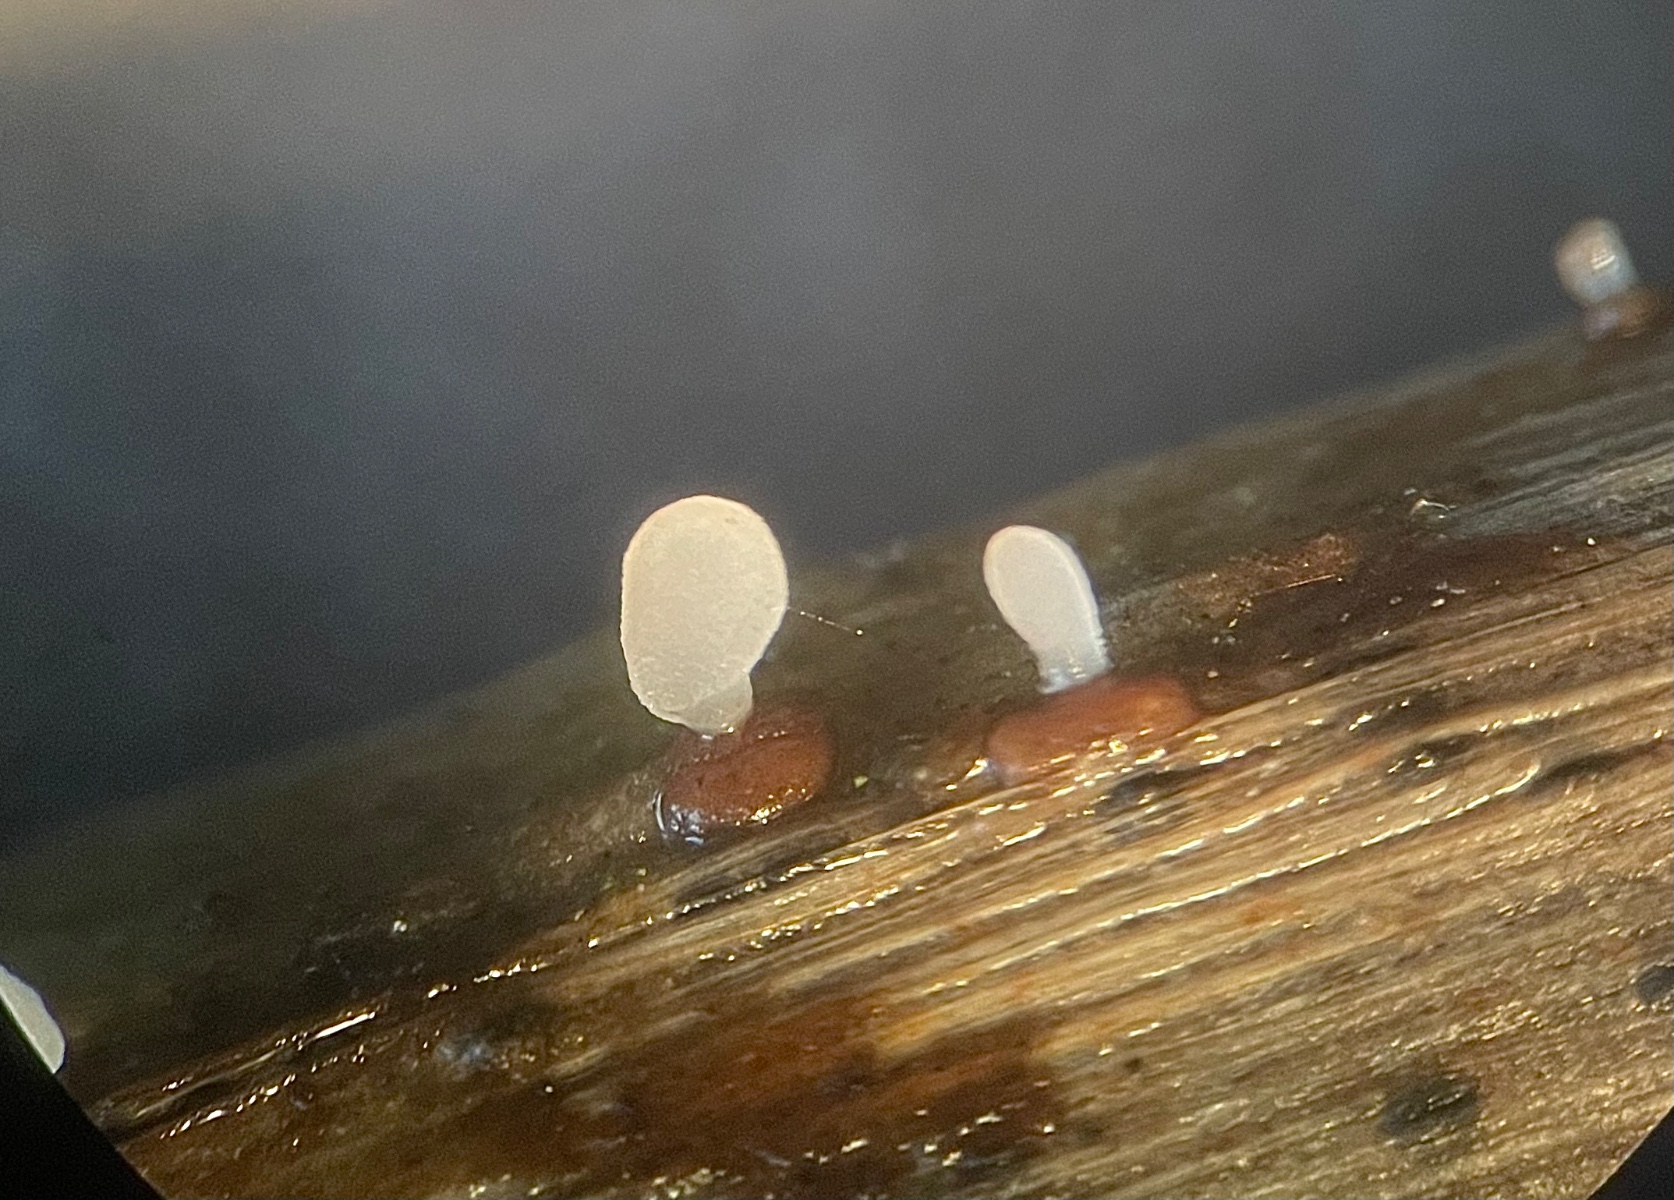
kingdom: Fungi
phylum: Basidiomycota
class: Agaricomycetes
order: Agaricales
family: Typhulaceae
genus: Typhula
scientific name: Typhula spathulata
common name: aske-trådkølle
